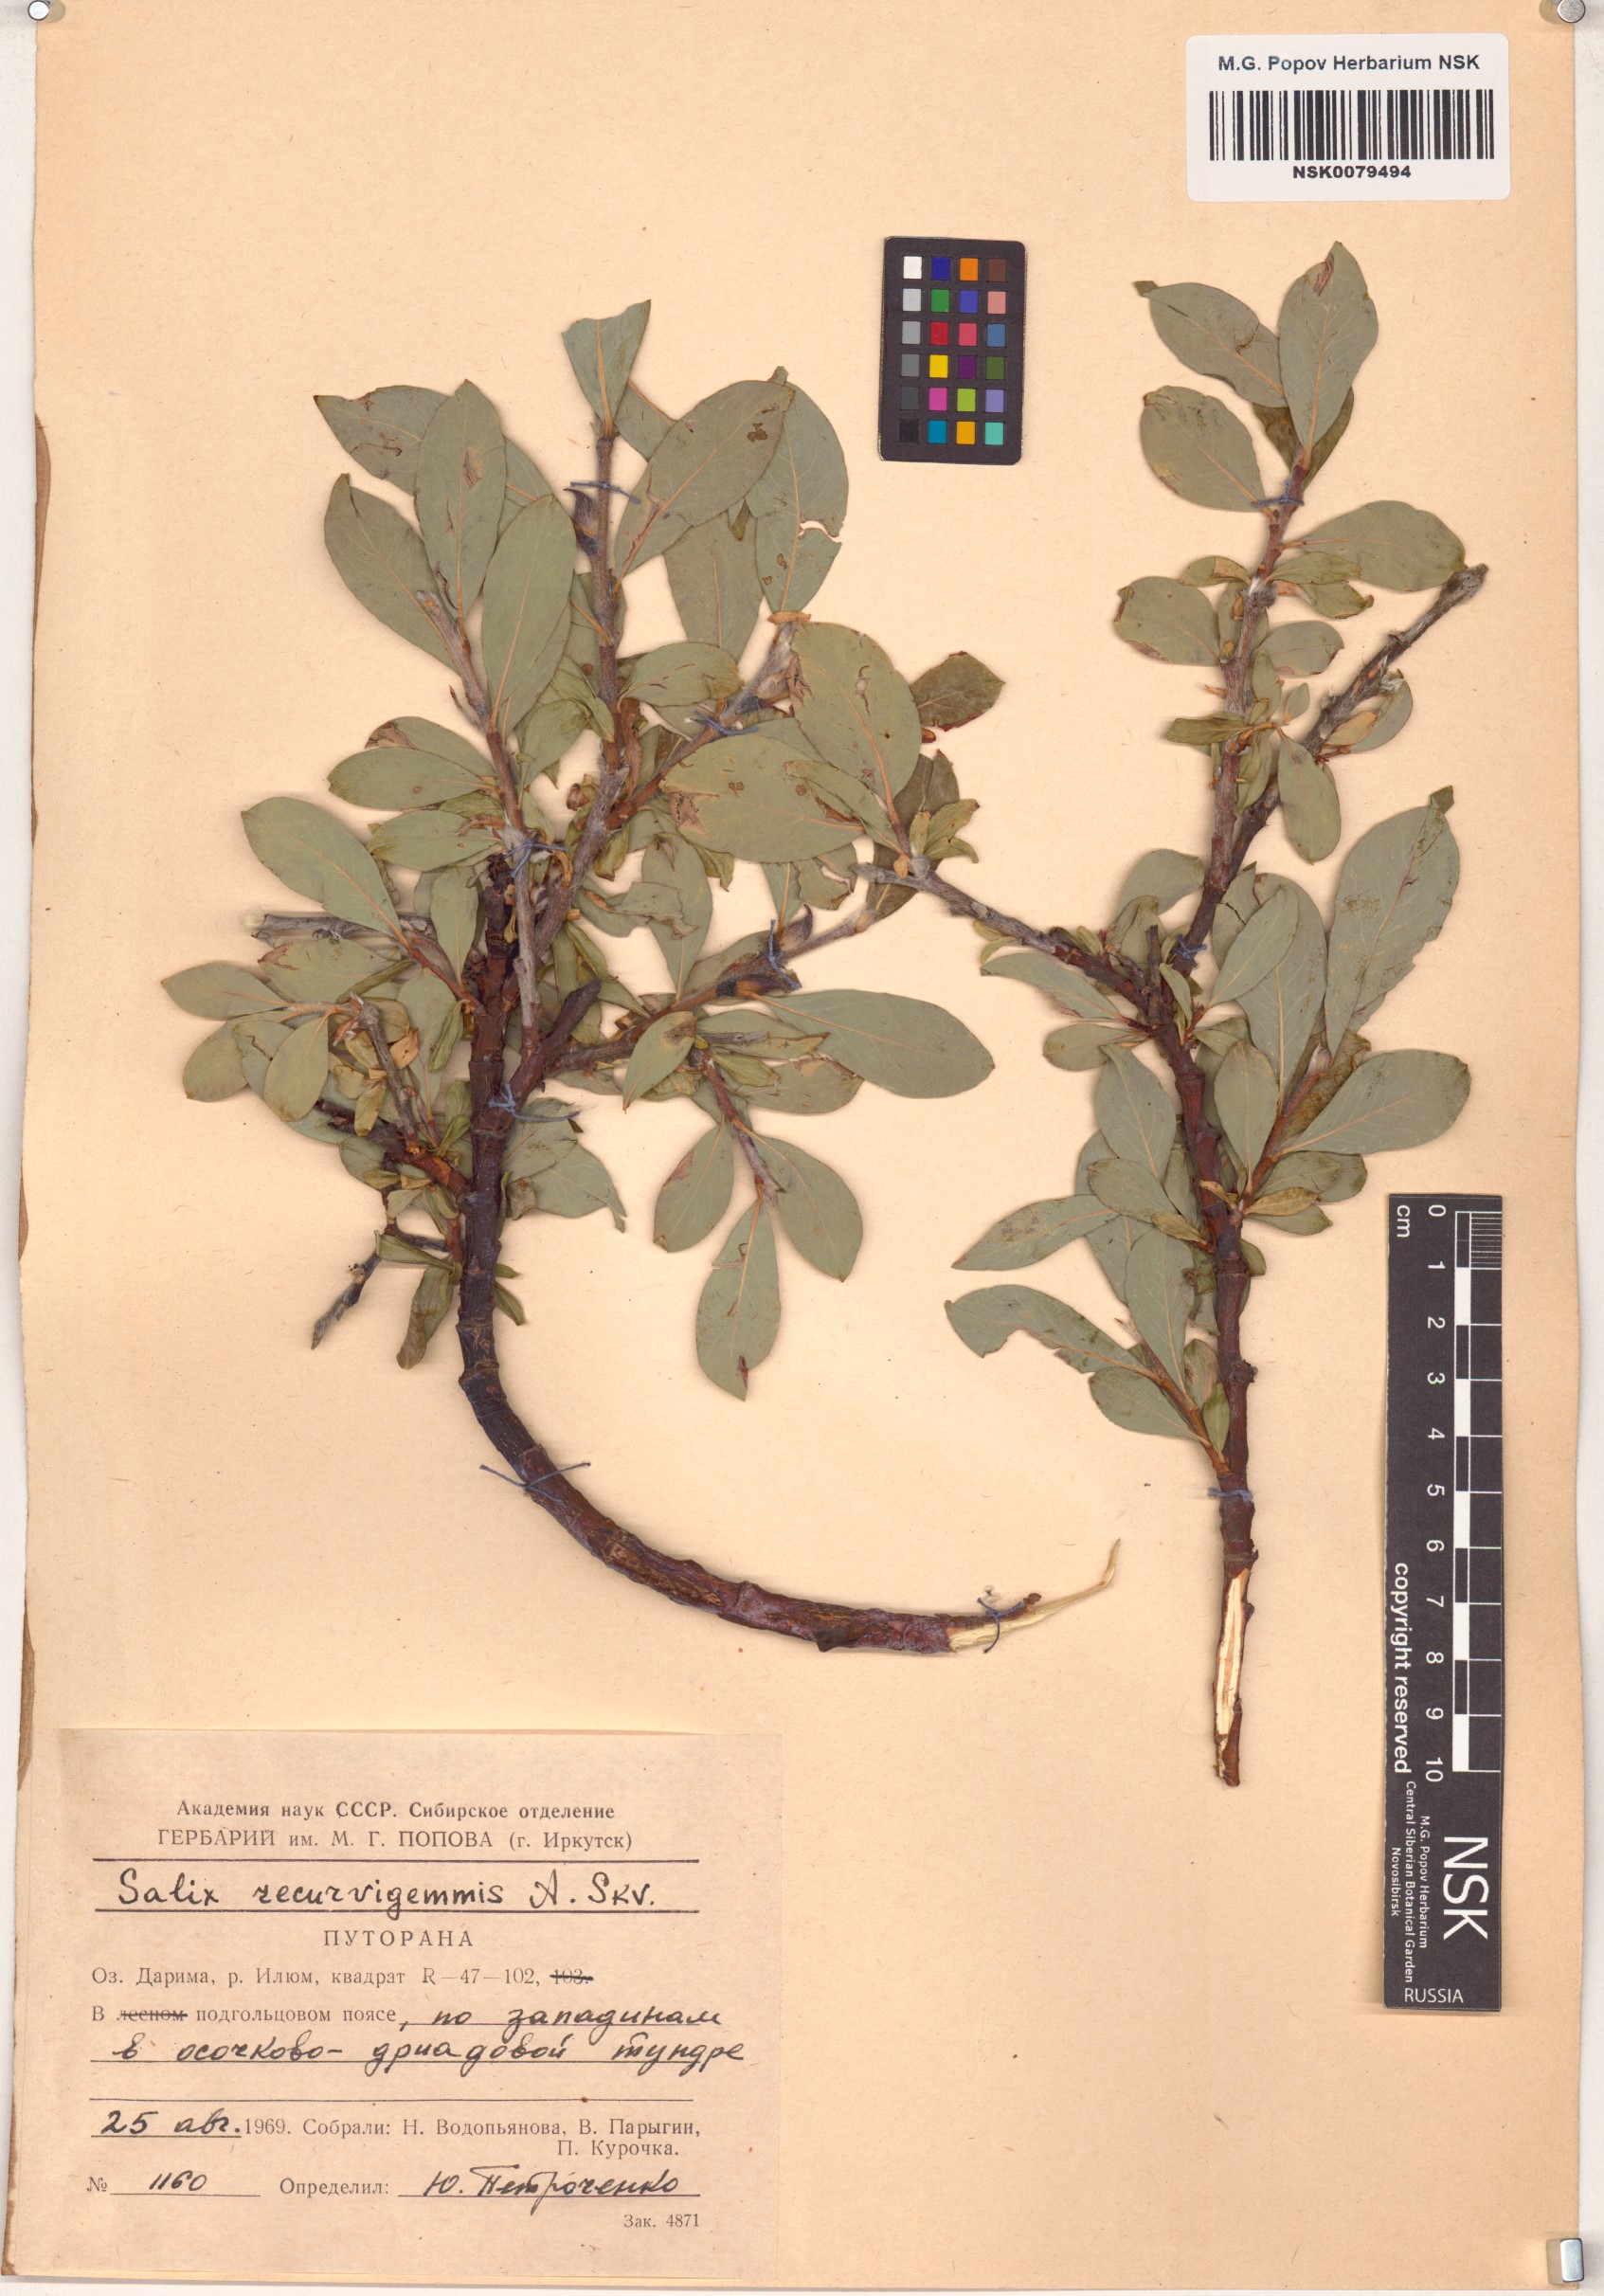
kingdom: Plantae
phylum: Tracheophyta
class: Magnoliopsida
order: Malpighiales
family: Salicaceae
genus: Salix
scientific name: Salix recurvigemmata
